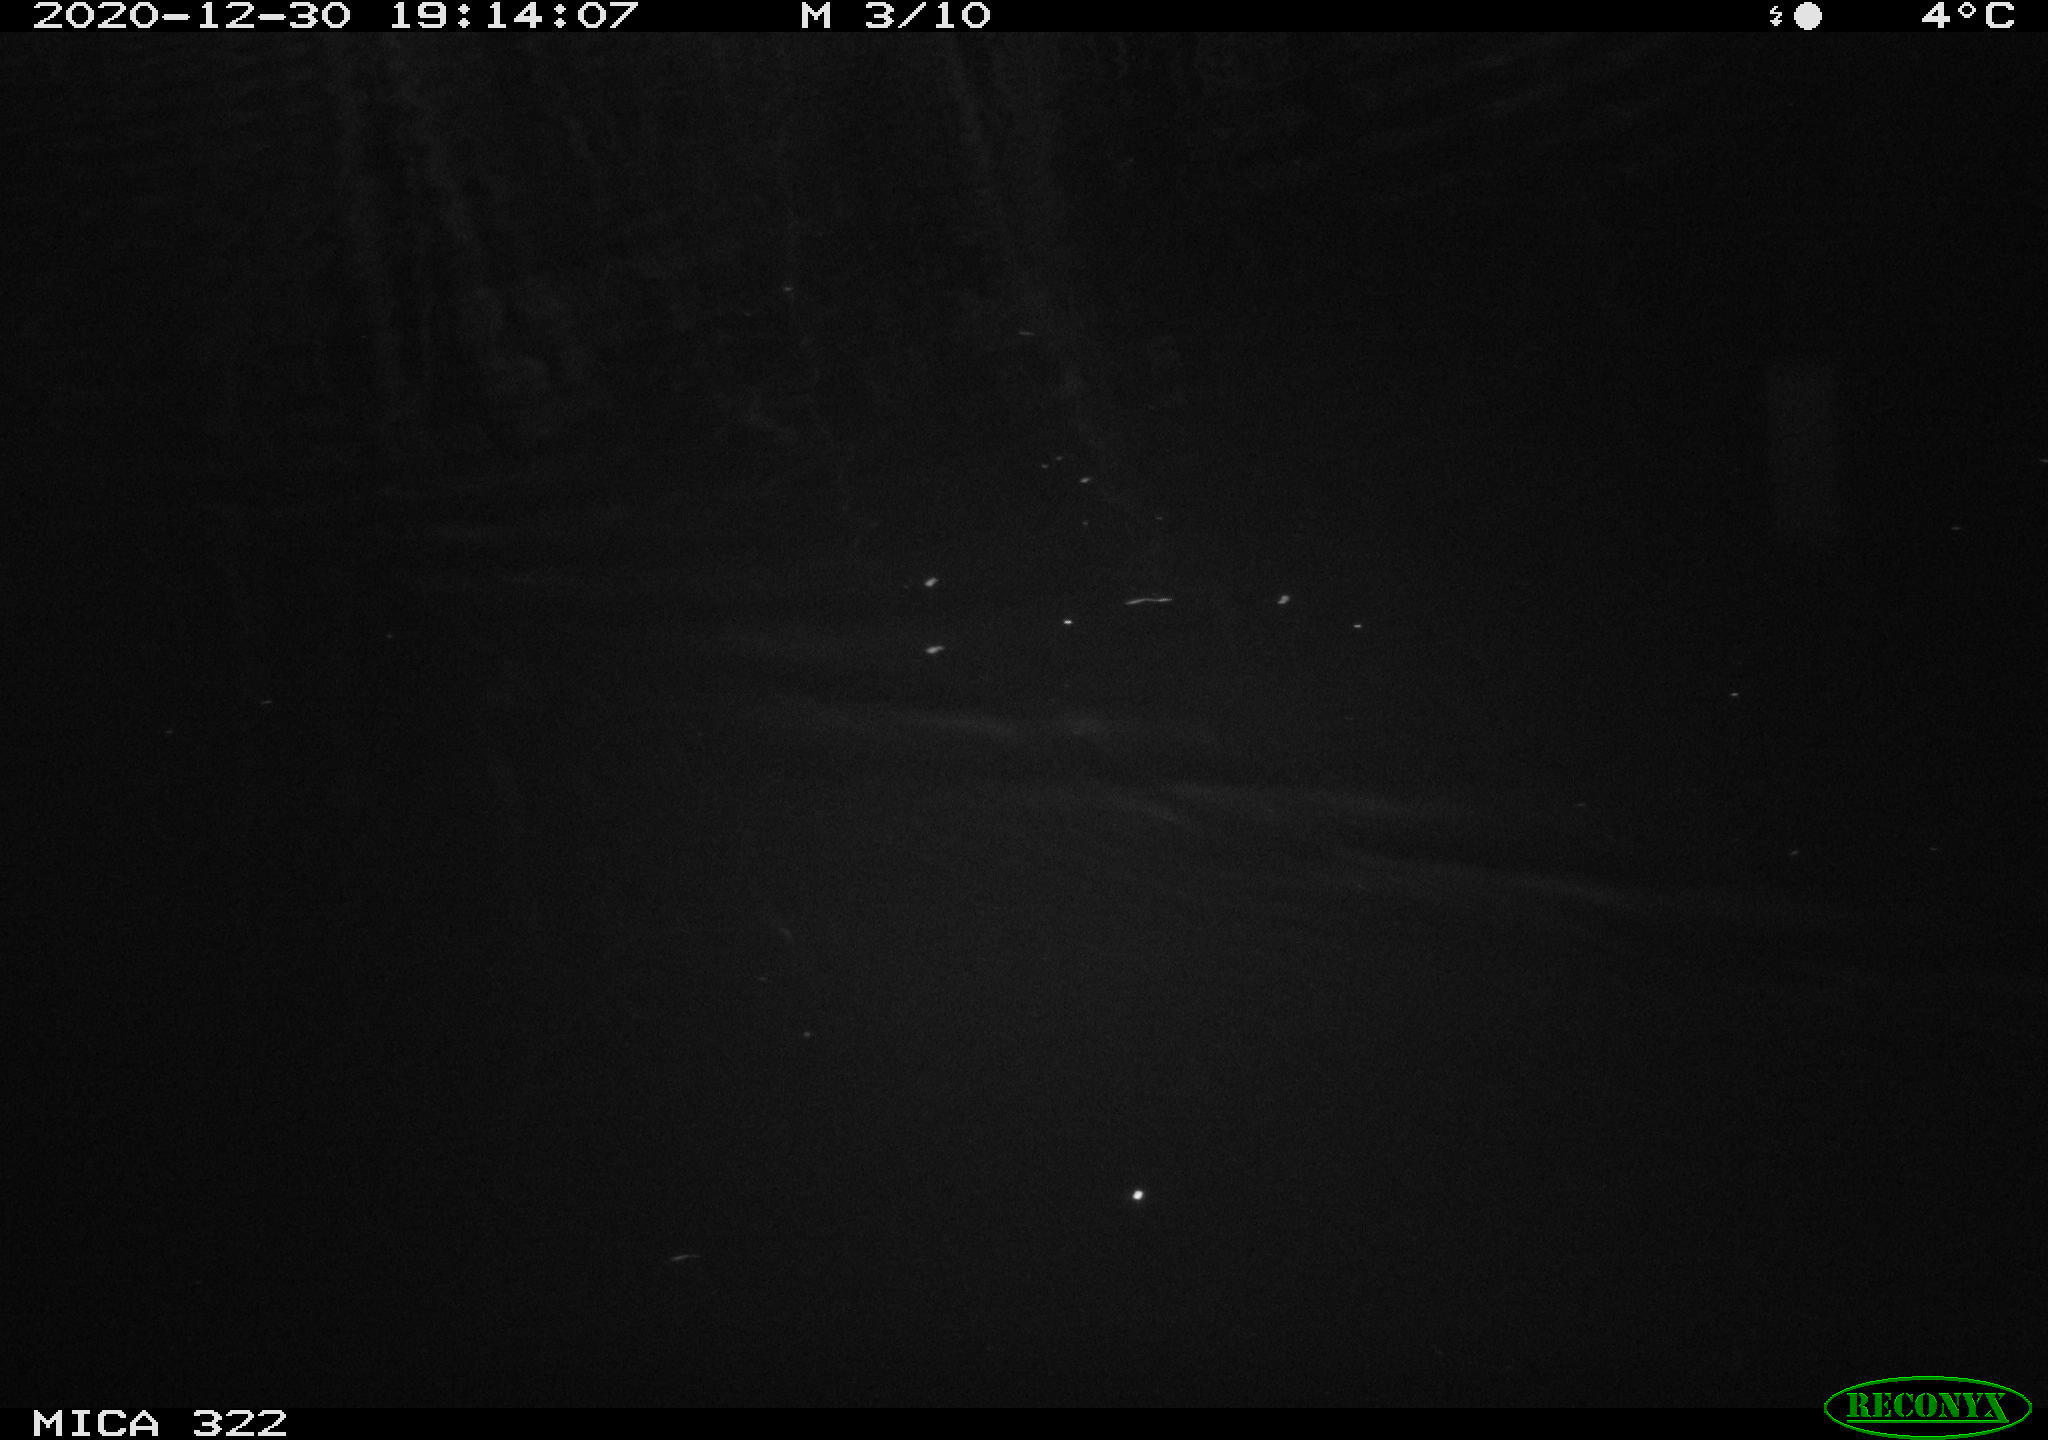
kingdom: Animalia
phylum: Chordata
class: Mammalia
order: Rodentia
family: Muridae
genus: Rattus
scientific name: Rattus norvegicus
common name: Brown rat
